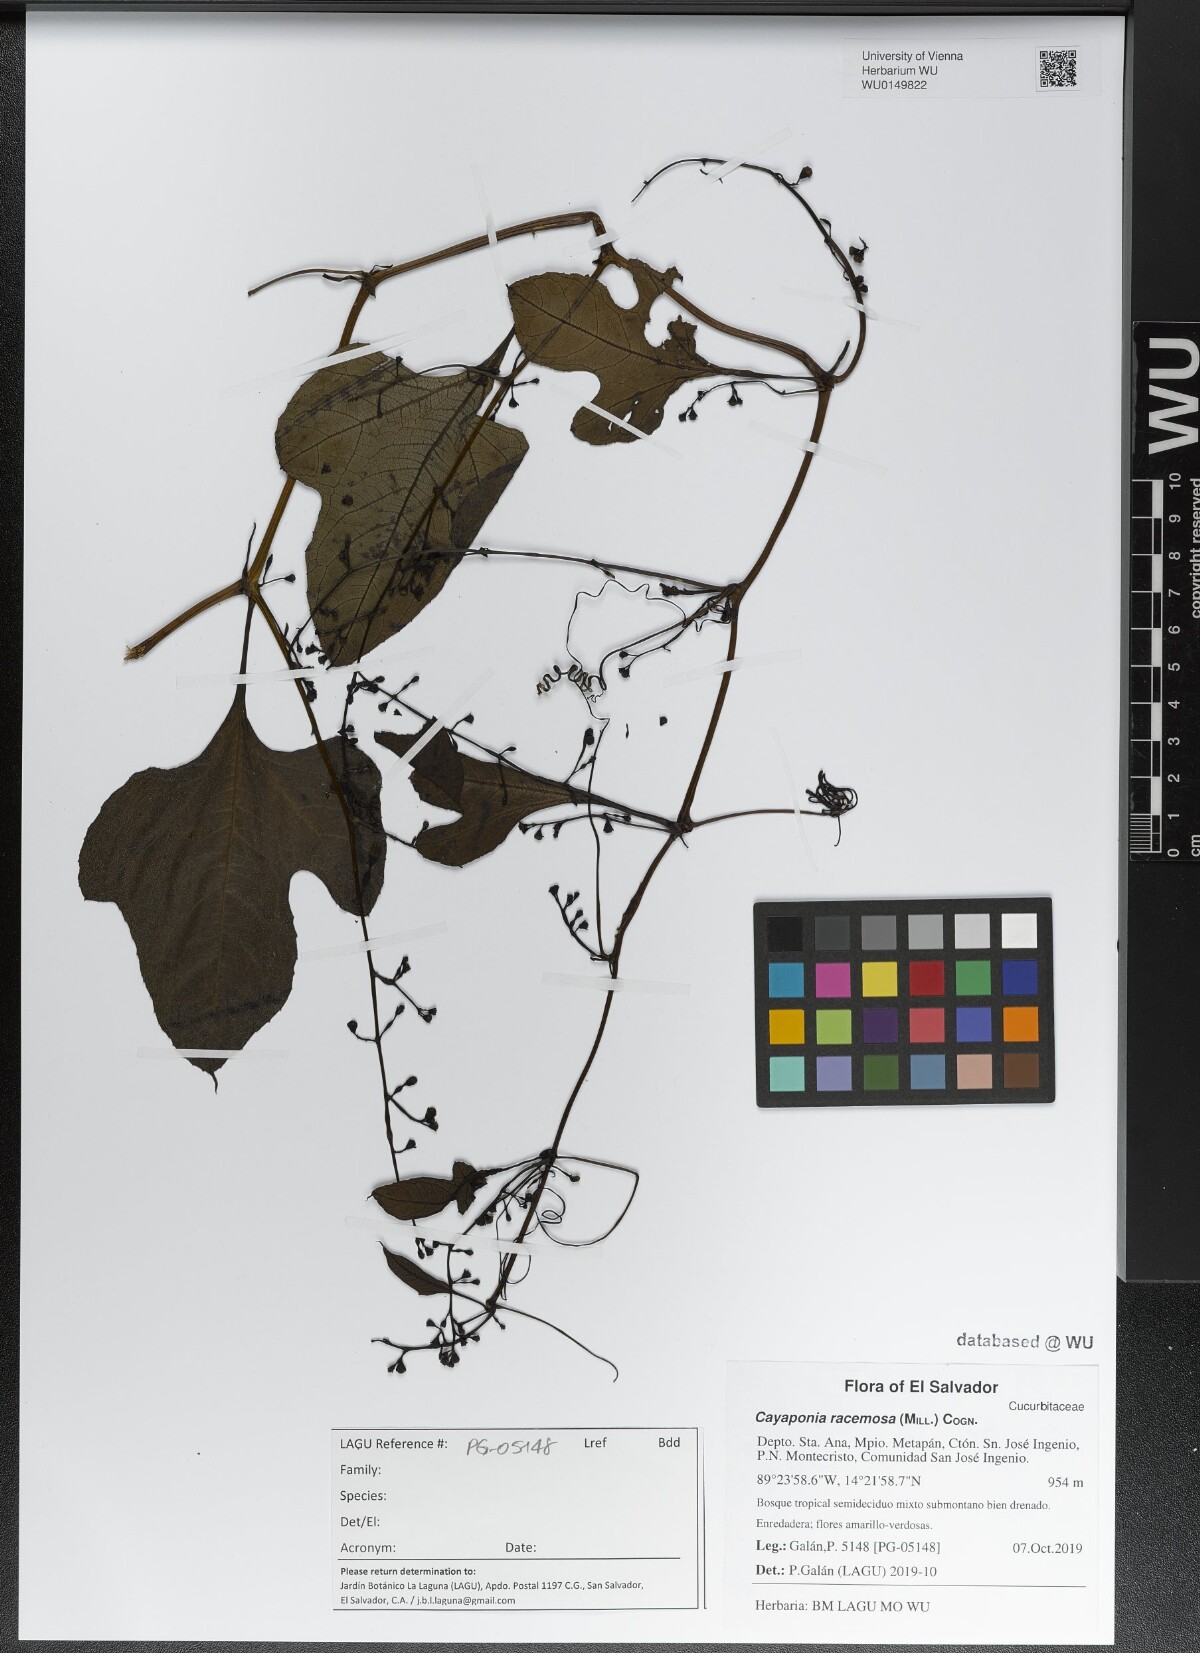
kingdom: Plantae
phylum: Tracheophyta
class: Magnoliopsida
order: Cucurbitales
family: Cucurbitaceae
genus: Cayaponia
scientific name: Cayaponia racemosa
